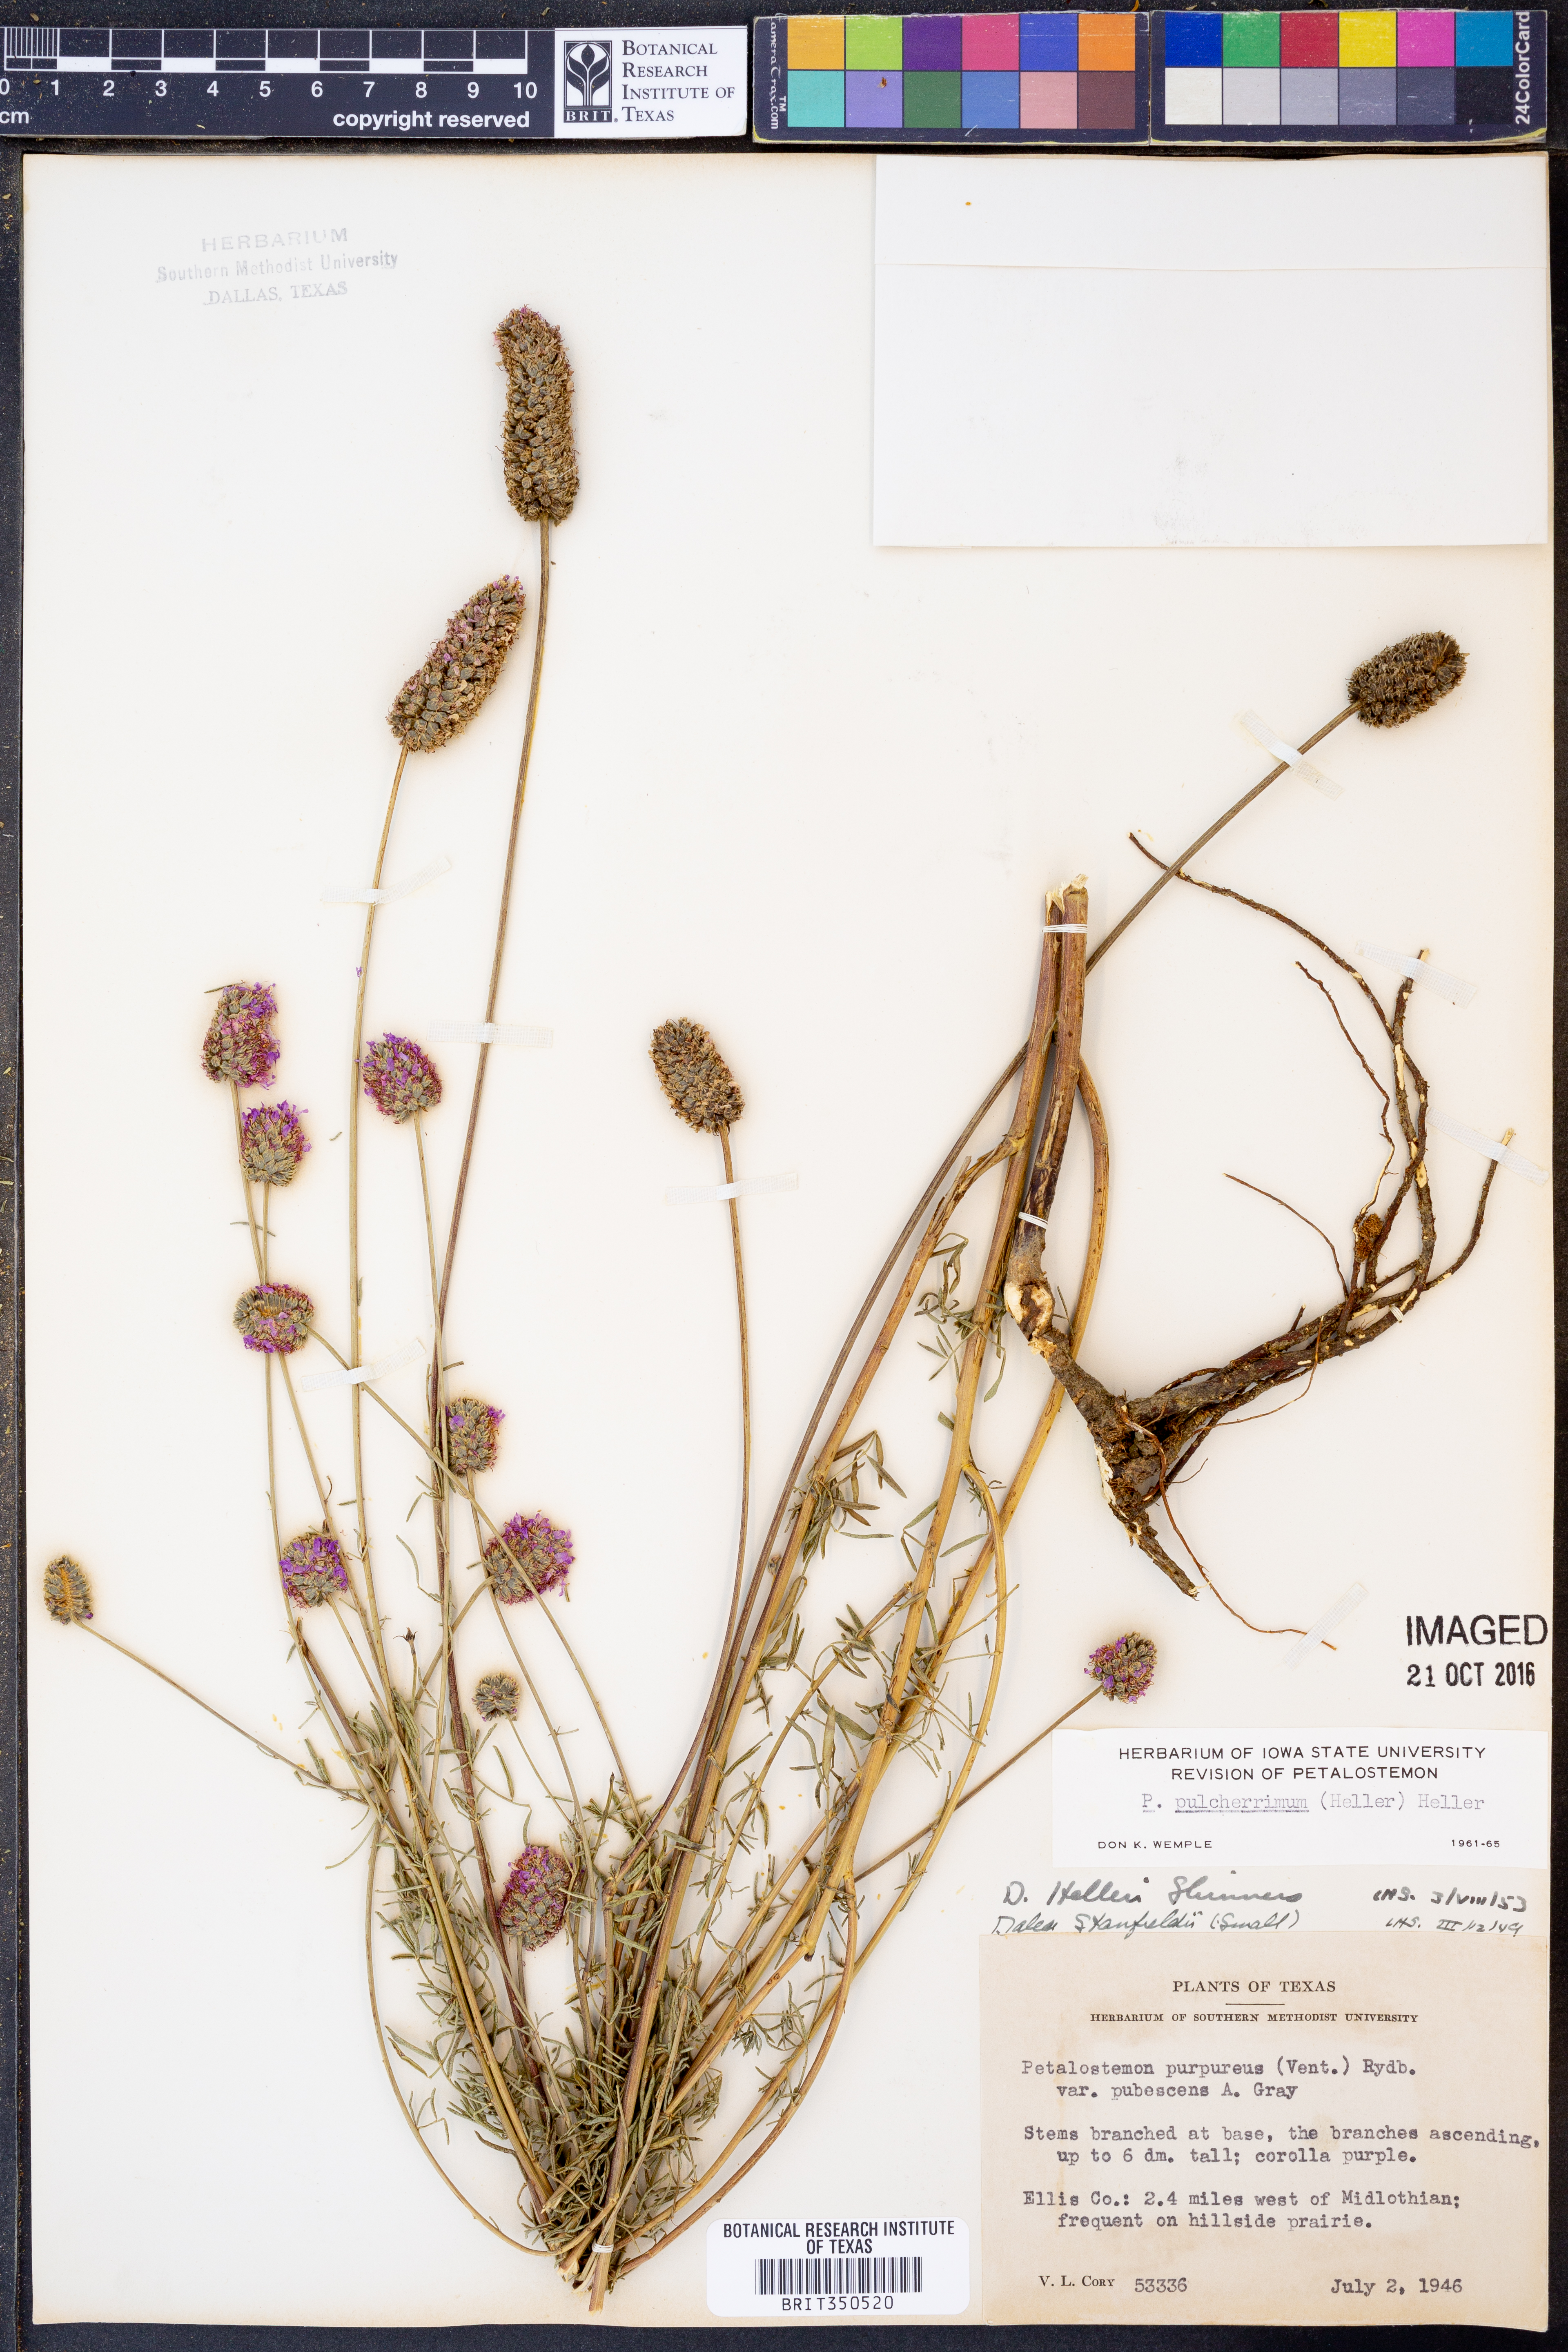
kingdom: Plantae
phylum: Tracheophyta
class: Magnoliopsida
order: Fabales
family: Fabaceae
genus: Dalea
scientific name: Dalea compacta
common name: Compact prairie-clover
